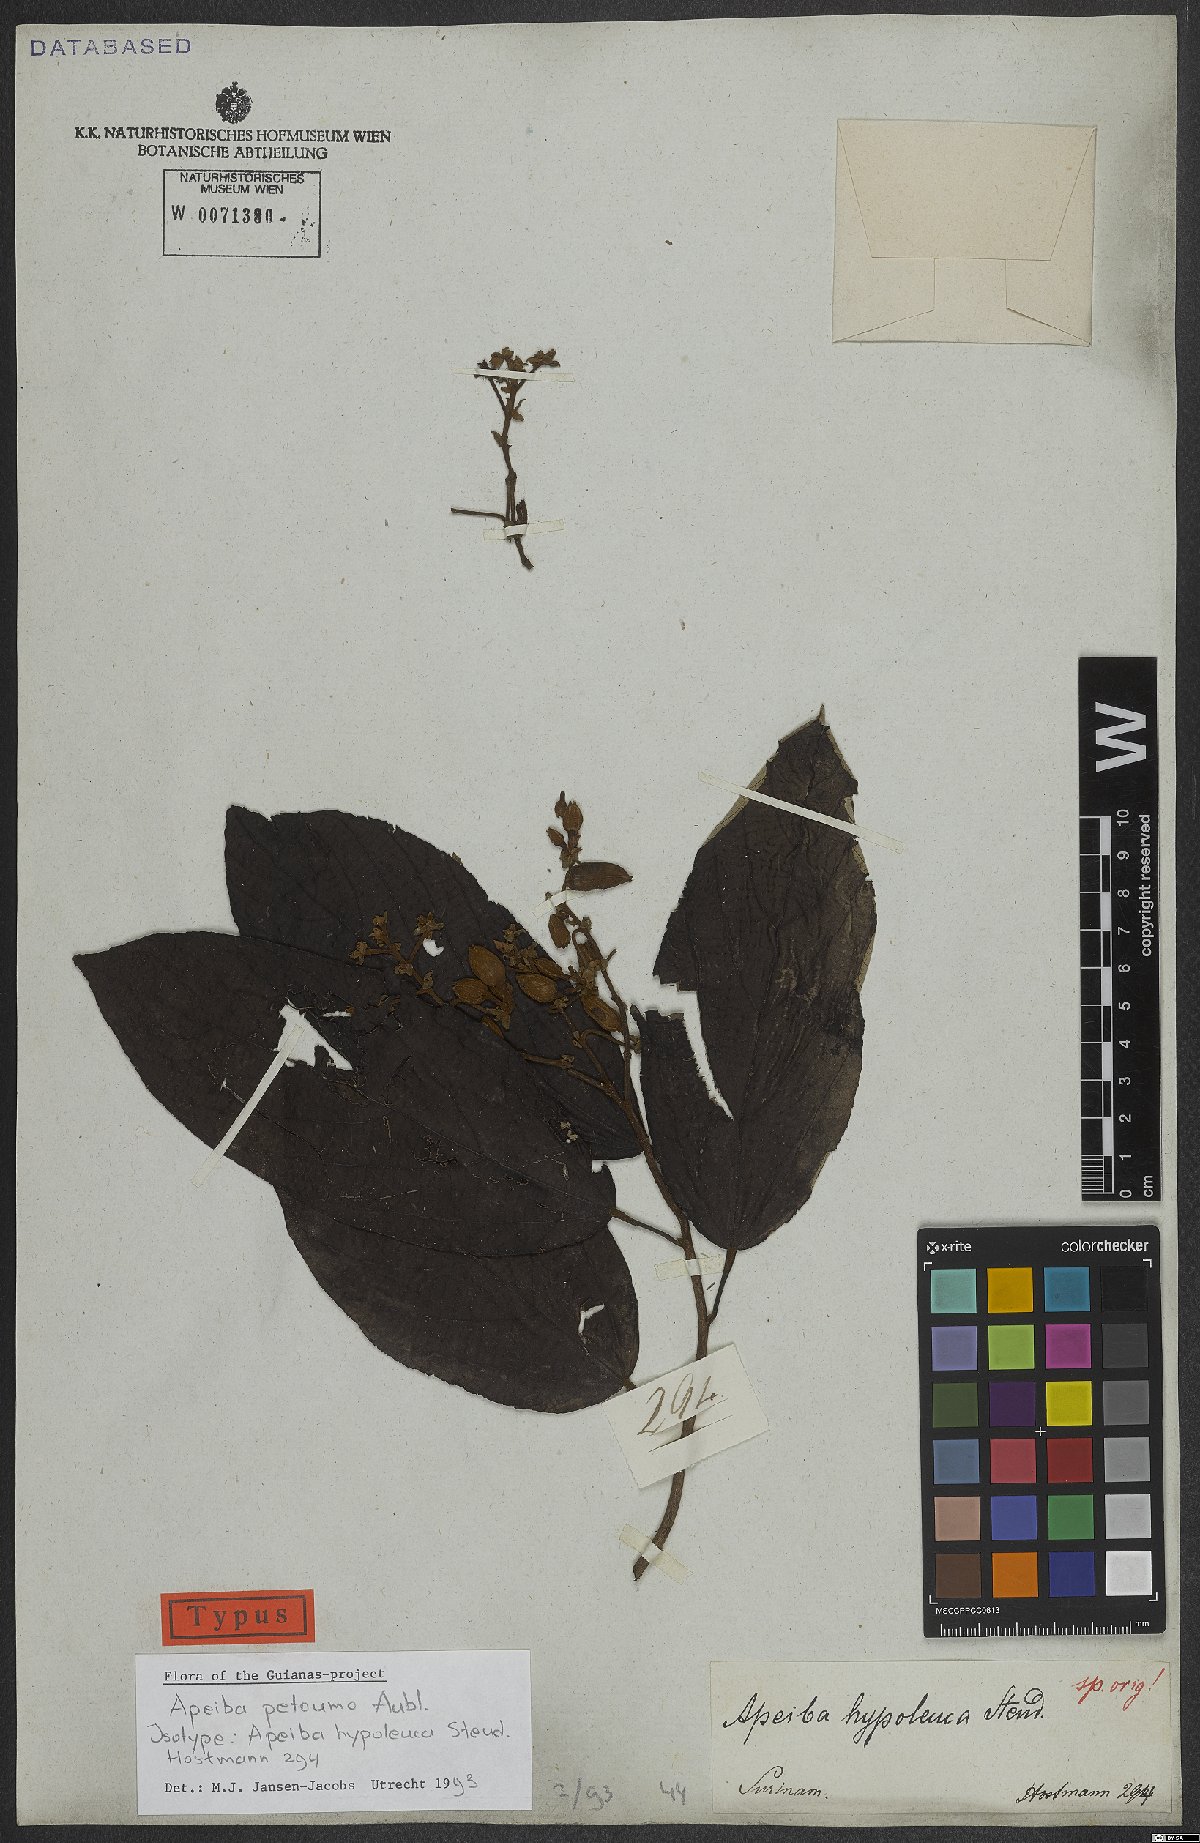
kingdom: Plantae
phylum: Tracheophyta
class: Magnoliopsida
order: Malvales
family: Malvaceae
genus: Apeiba
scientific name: Apeiba petoumo
